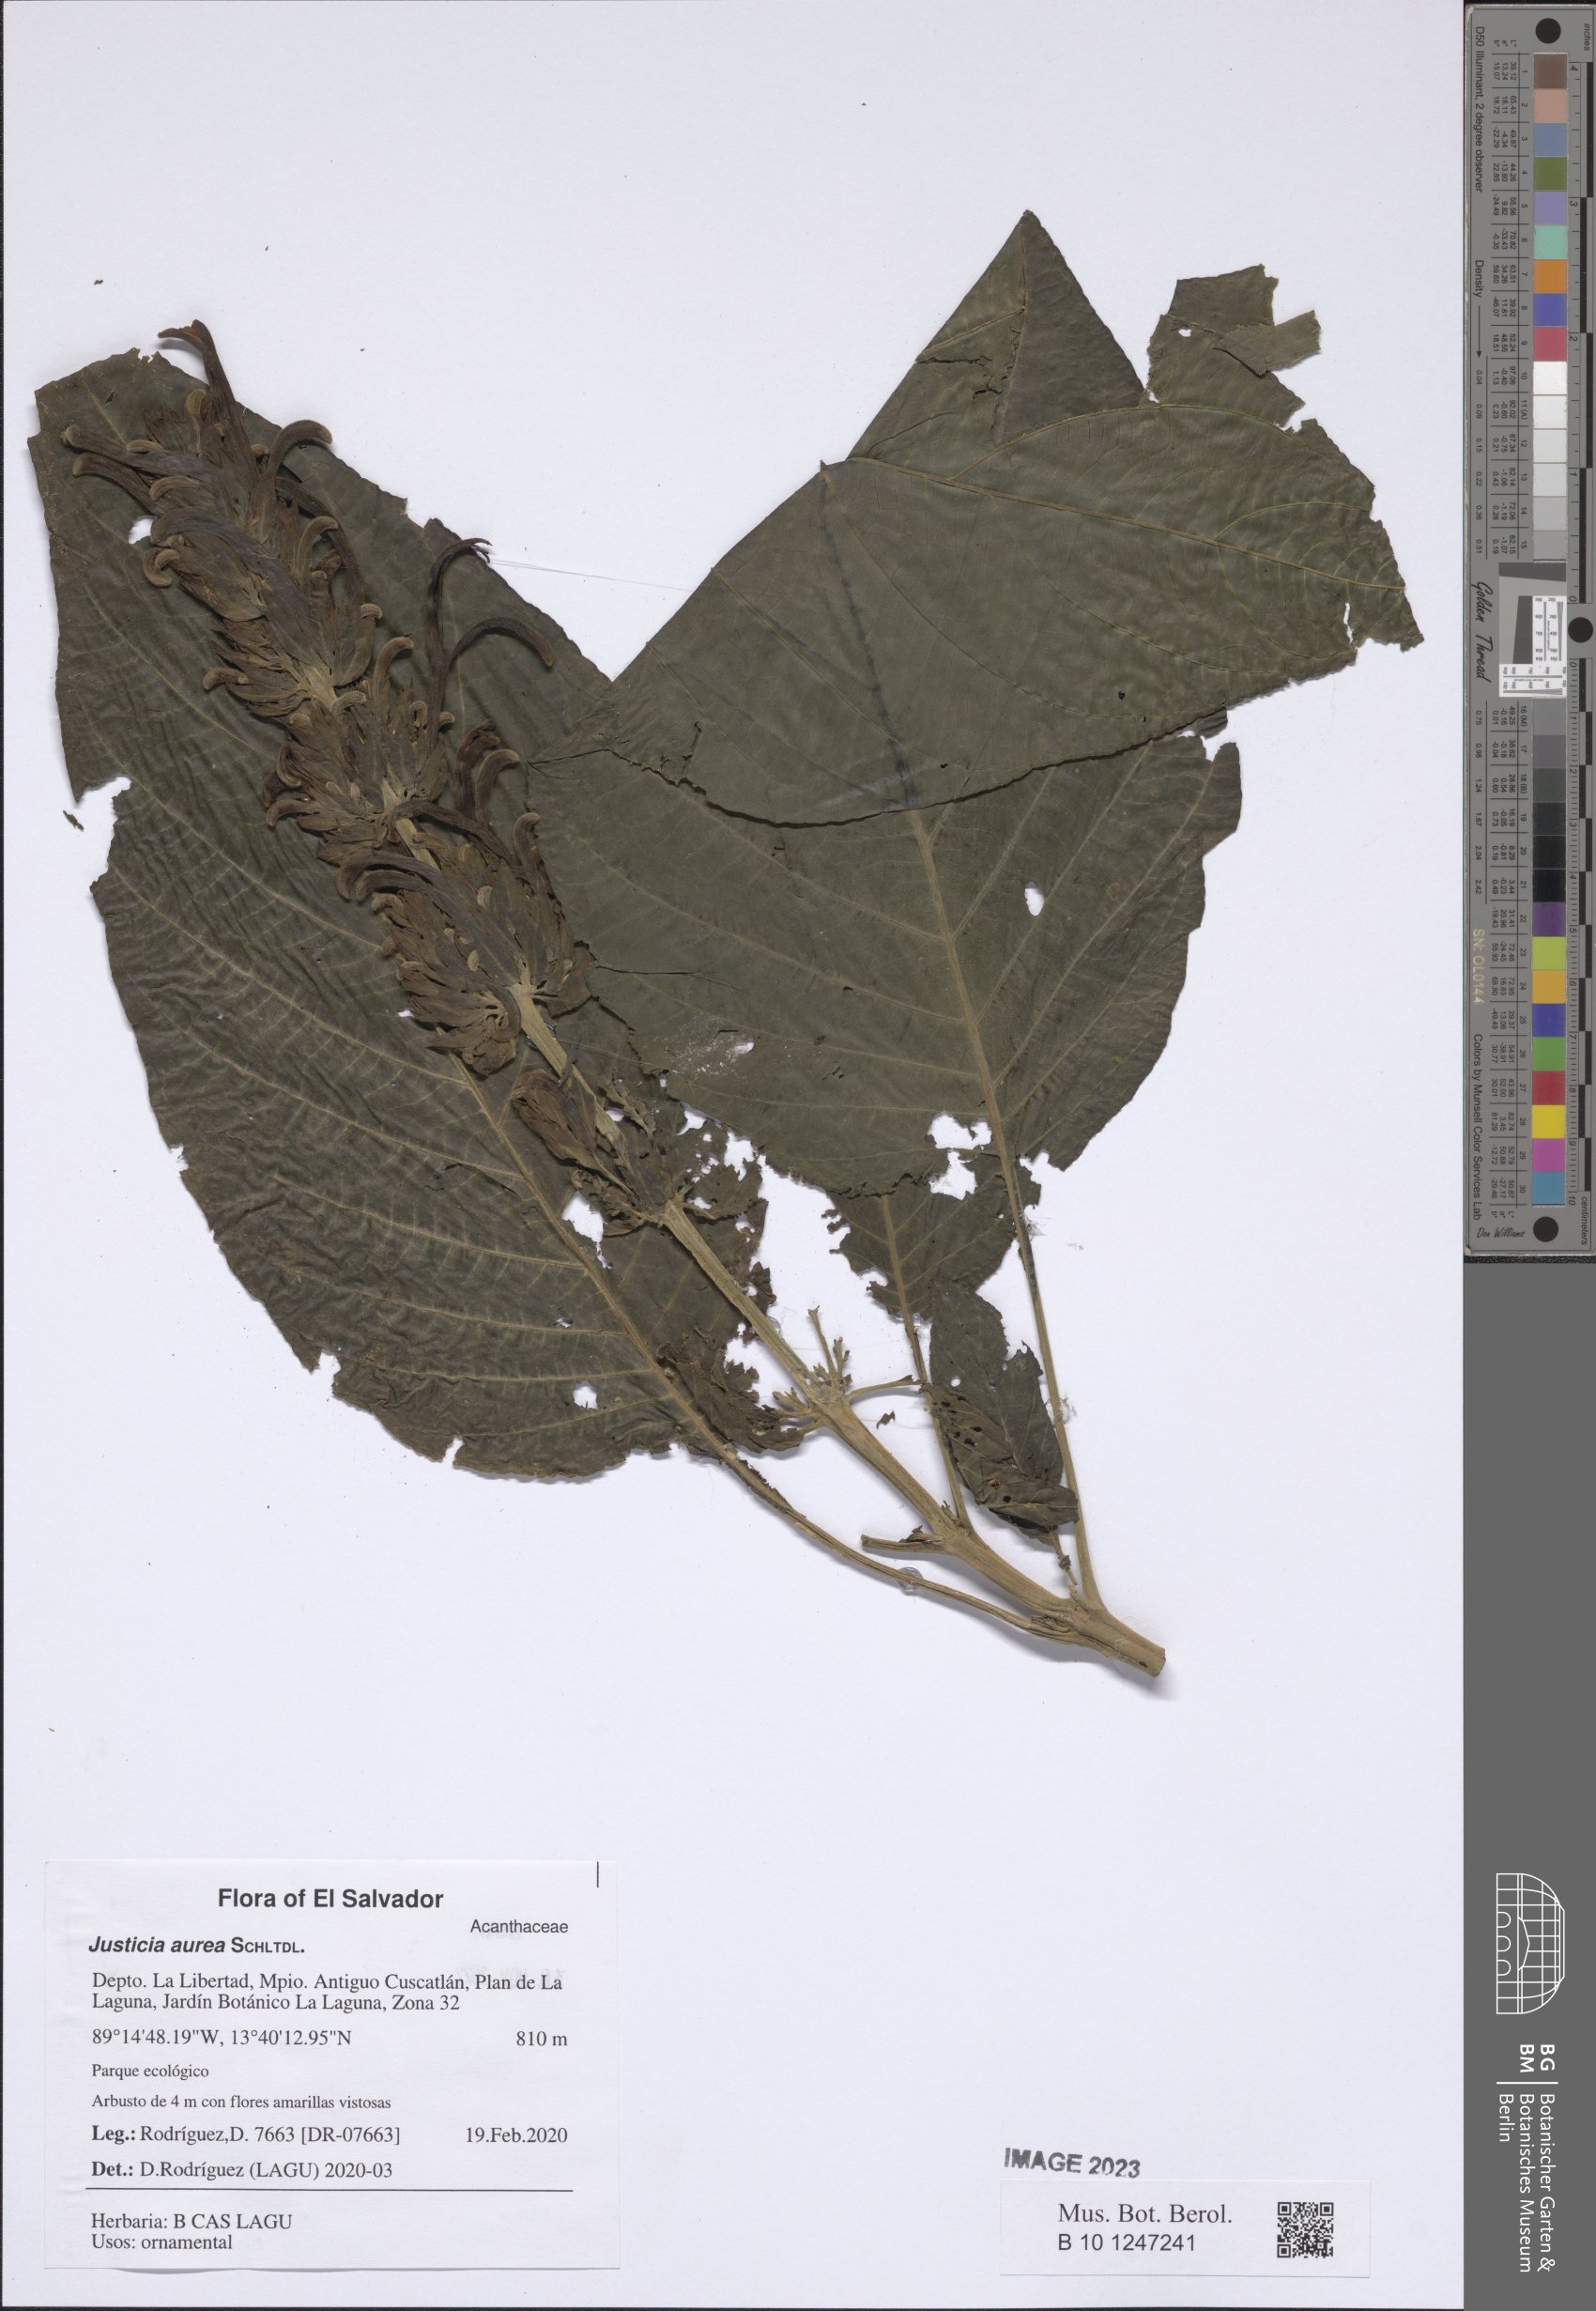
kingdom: Plantae
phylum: Tracheophyta
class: Magnoliopsida
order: Lamiales
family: Acanthaceae
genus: Justicia
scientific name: Justicia aurea
